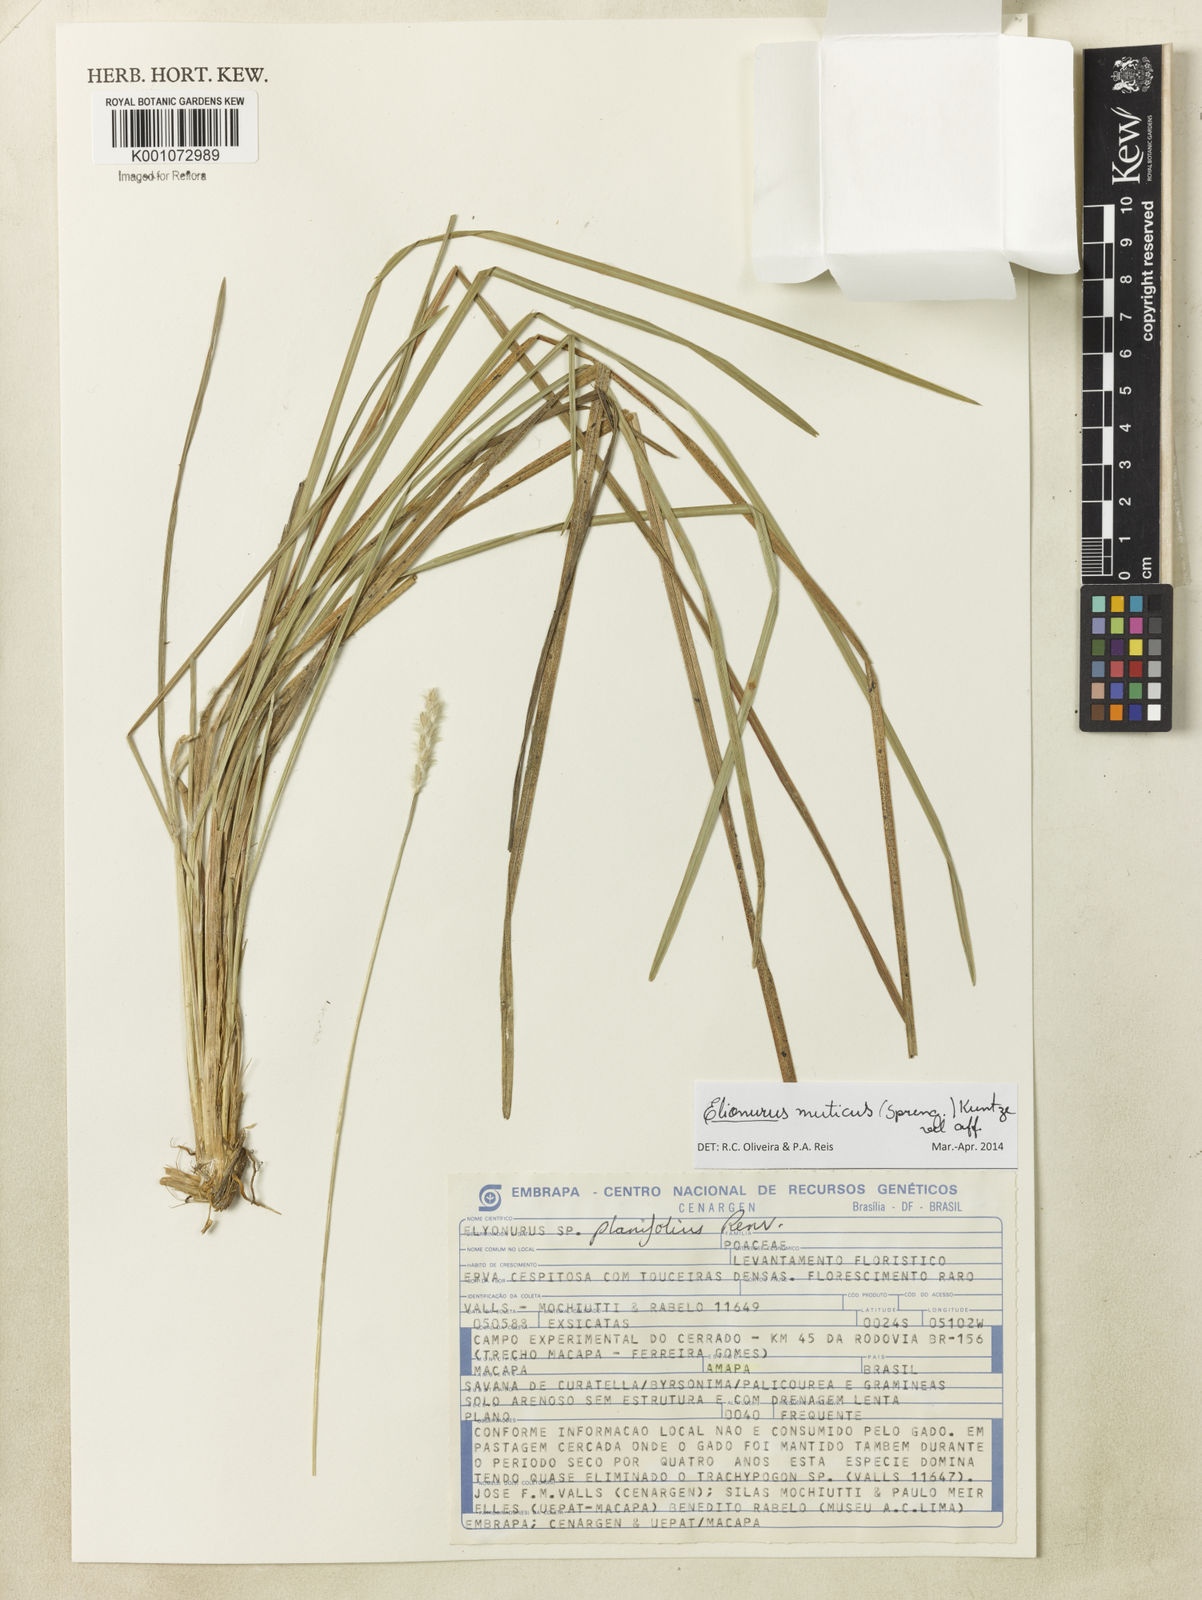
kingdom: Plantae
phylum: Tracheophyta
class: Liliopsida
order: Poales
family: Poaceae
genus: Elionurus
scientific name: Elionurus muticus
